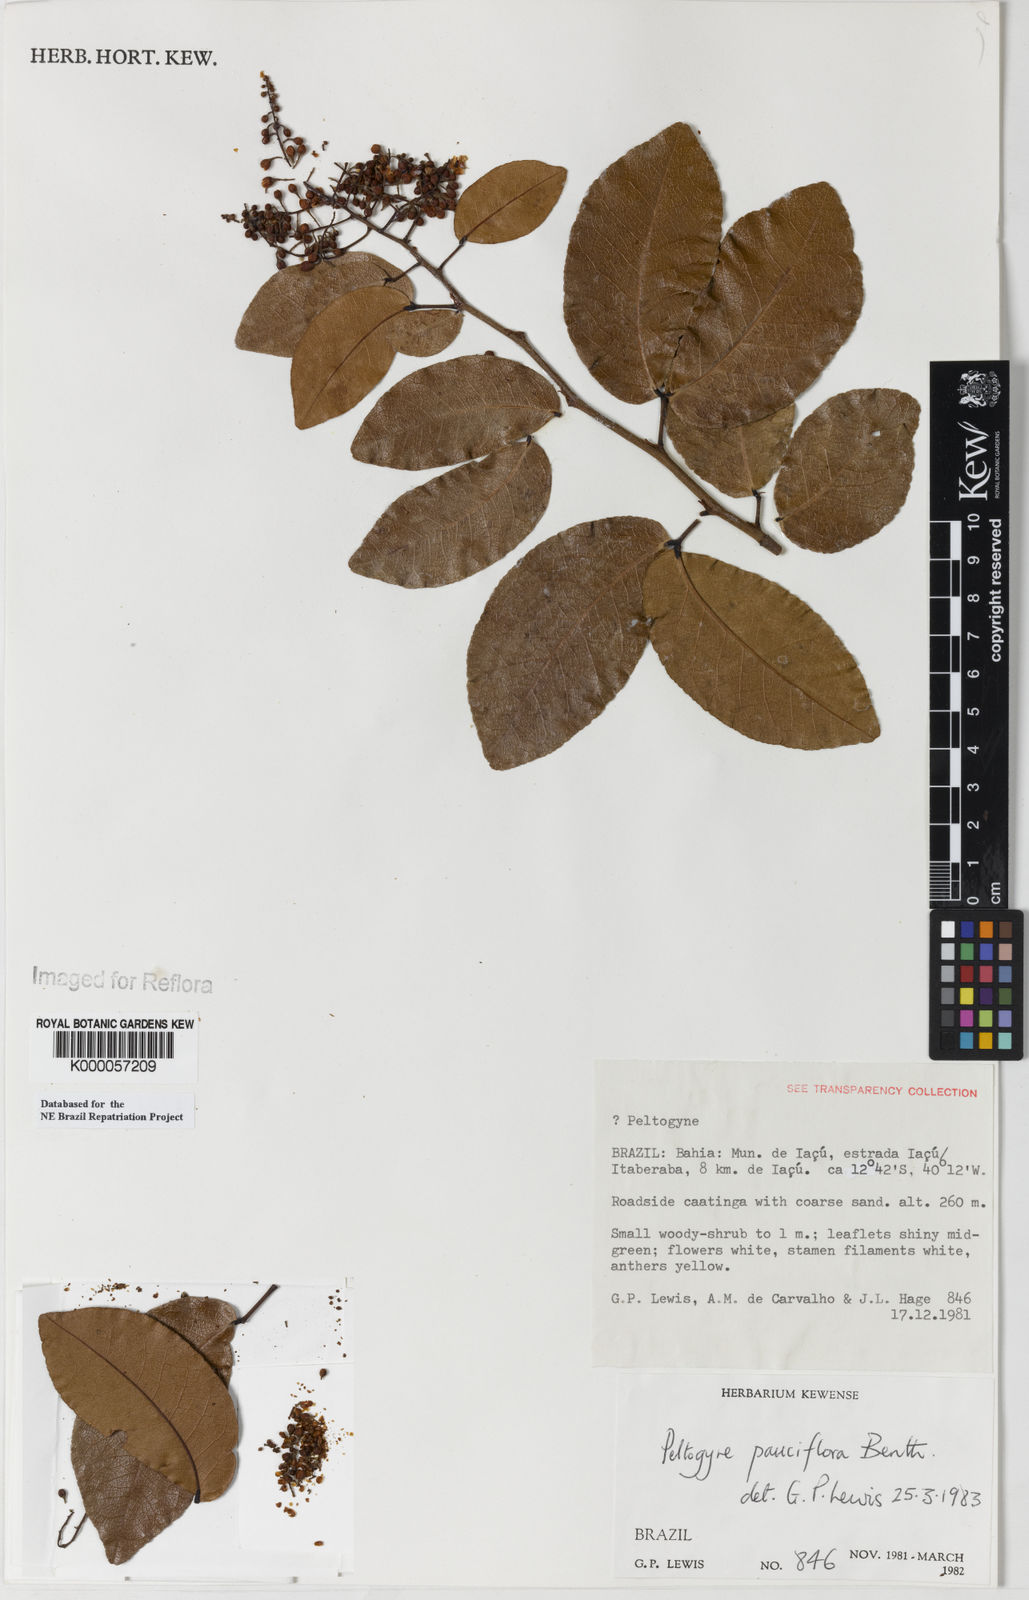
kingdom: Plantae
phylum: Tracheophyta
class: Magnoliopsida
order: Fabales
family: Fabaceae
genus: Peltogyne
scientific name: Peltogyne pauciflora
